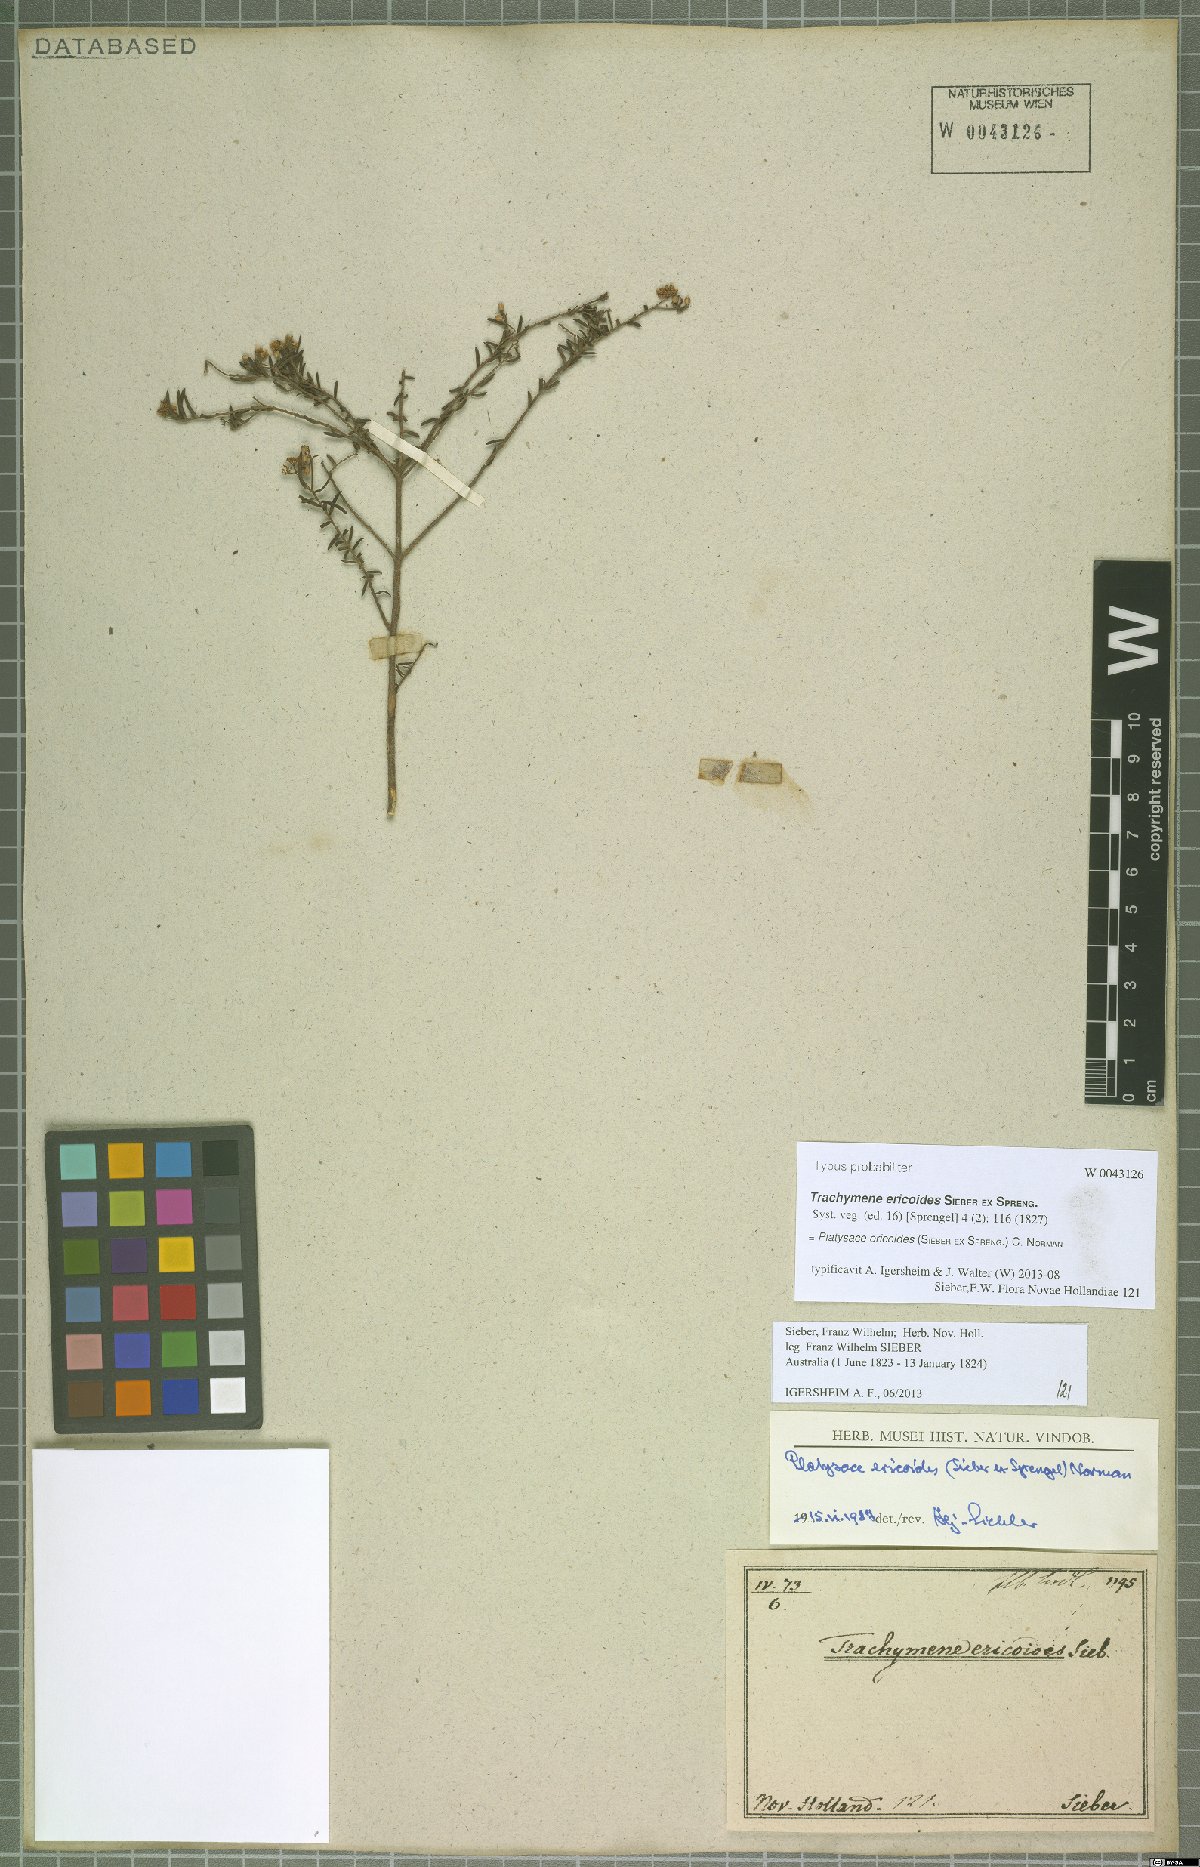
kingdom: Plantae
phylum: Tracheophyta
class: Magnoliopsida
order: Apiales
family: Apiaceae
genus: Platysace
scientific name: Platysace ericoides
